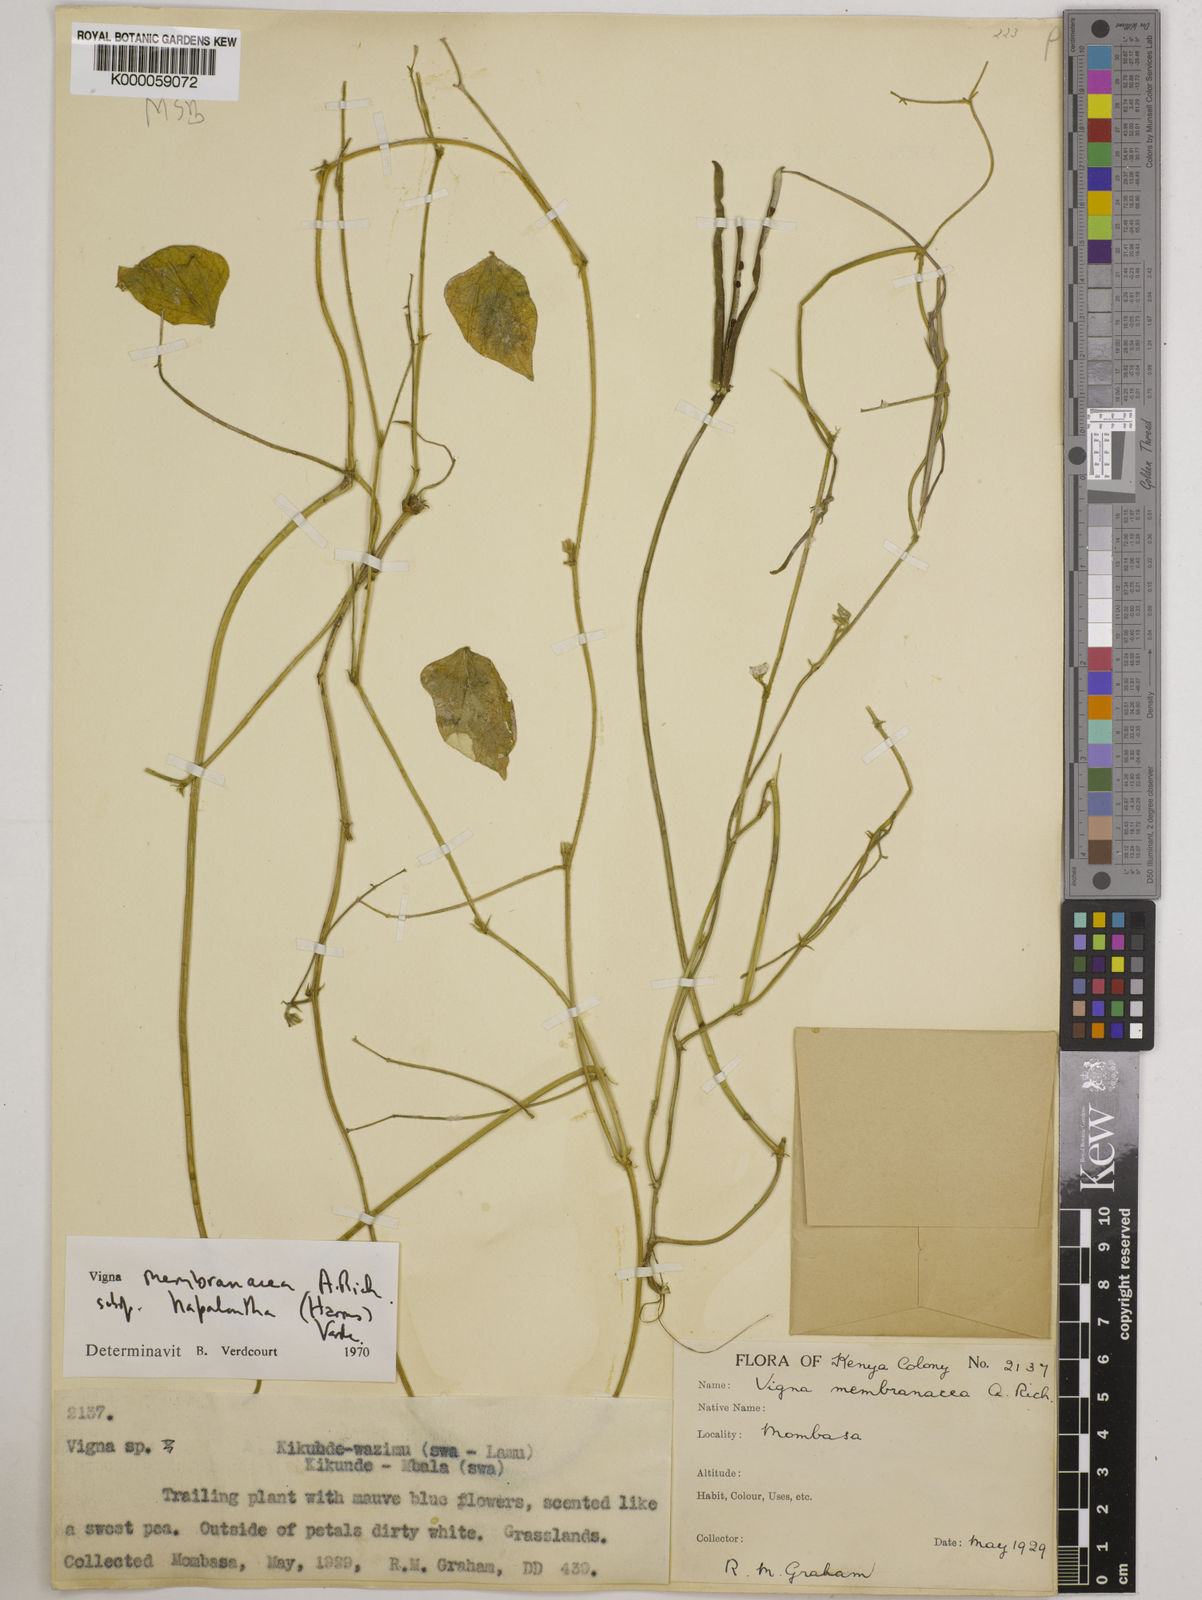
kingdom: Plantae
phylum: Tracheophyta
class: Magnoliopsida
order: Fabales
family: Fabaceae
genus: Vigna
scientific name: Vigna membranacea
